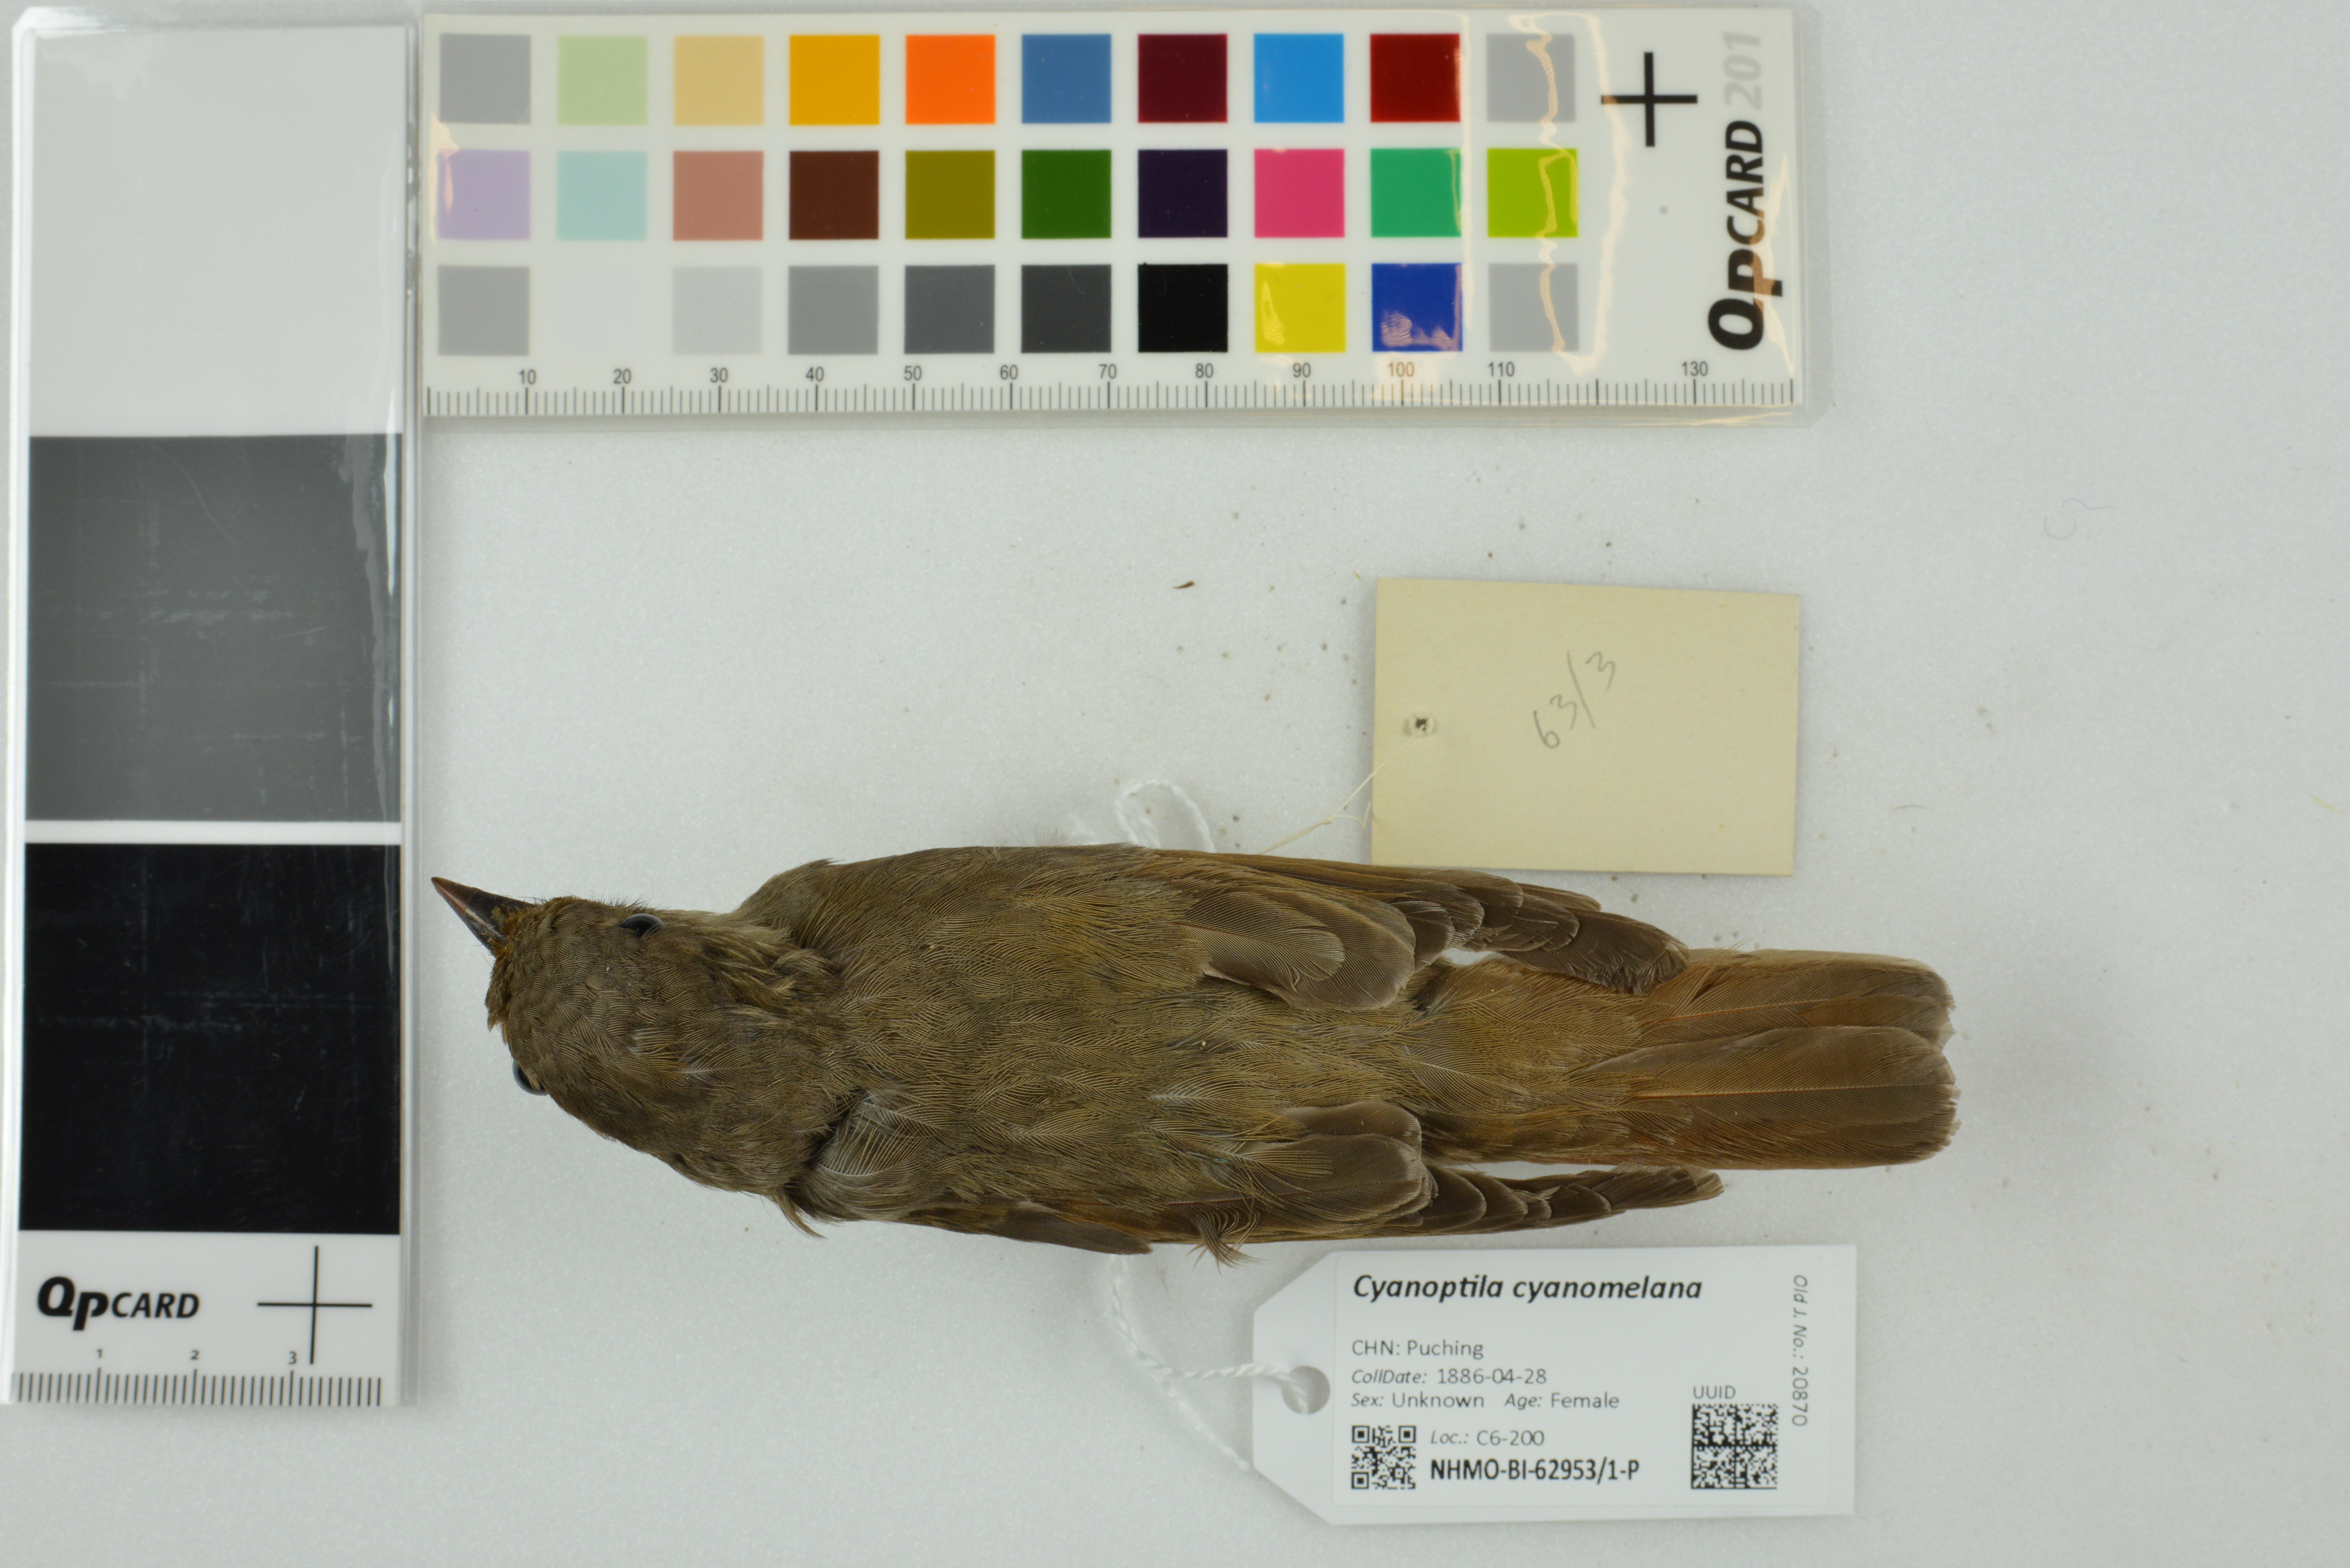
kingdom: Animalia
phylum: Chordata
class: Aves
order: Passeriformes
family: Muscicapidae
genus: Cyanoptila
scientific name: Cyanoptila cyanomelana
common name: Blue-and-white flycatcher
